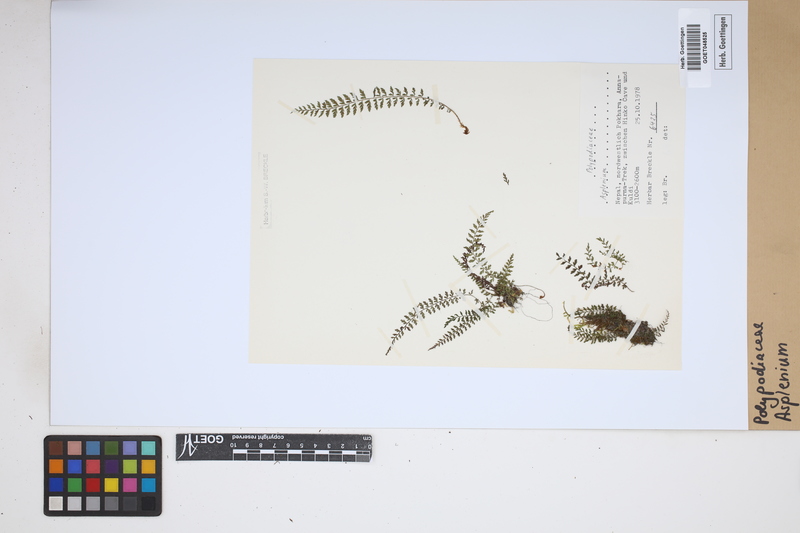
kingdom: Plantae
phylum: Tracheophyta
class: Polypodiopsida
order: Polypodiales
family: Aspleniaceae
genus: Asplenium
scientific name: Asplenium
